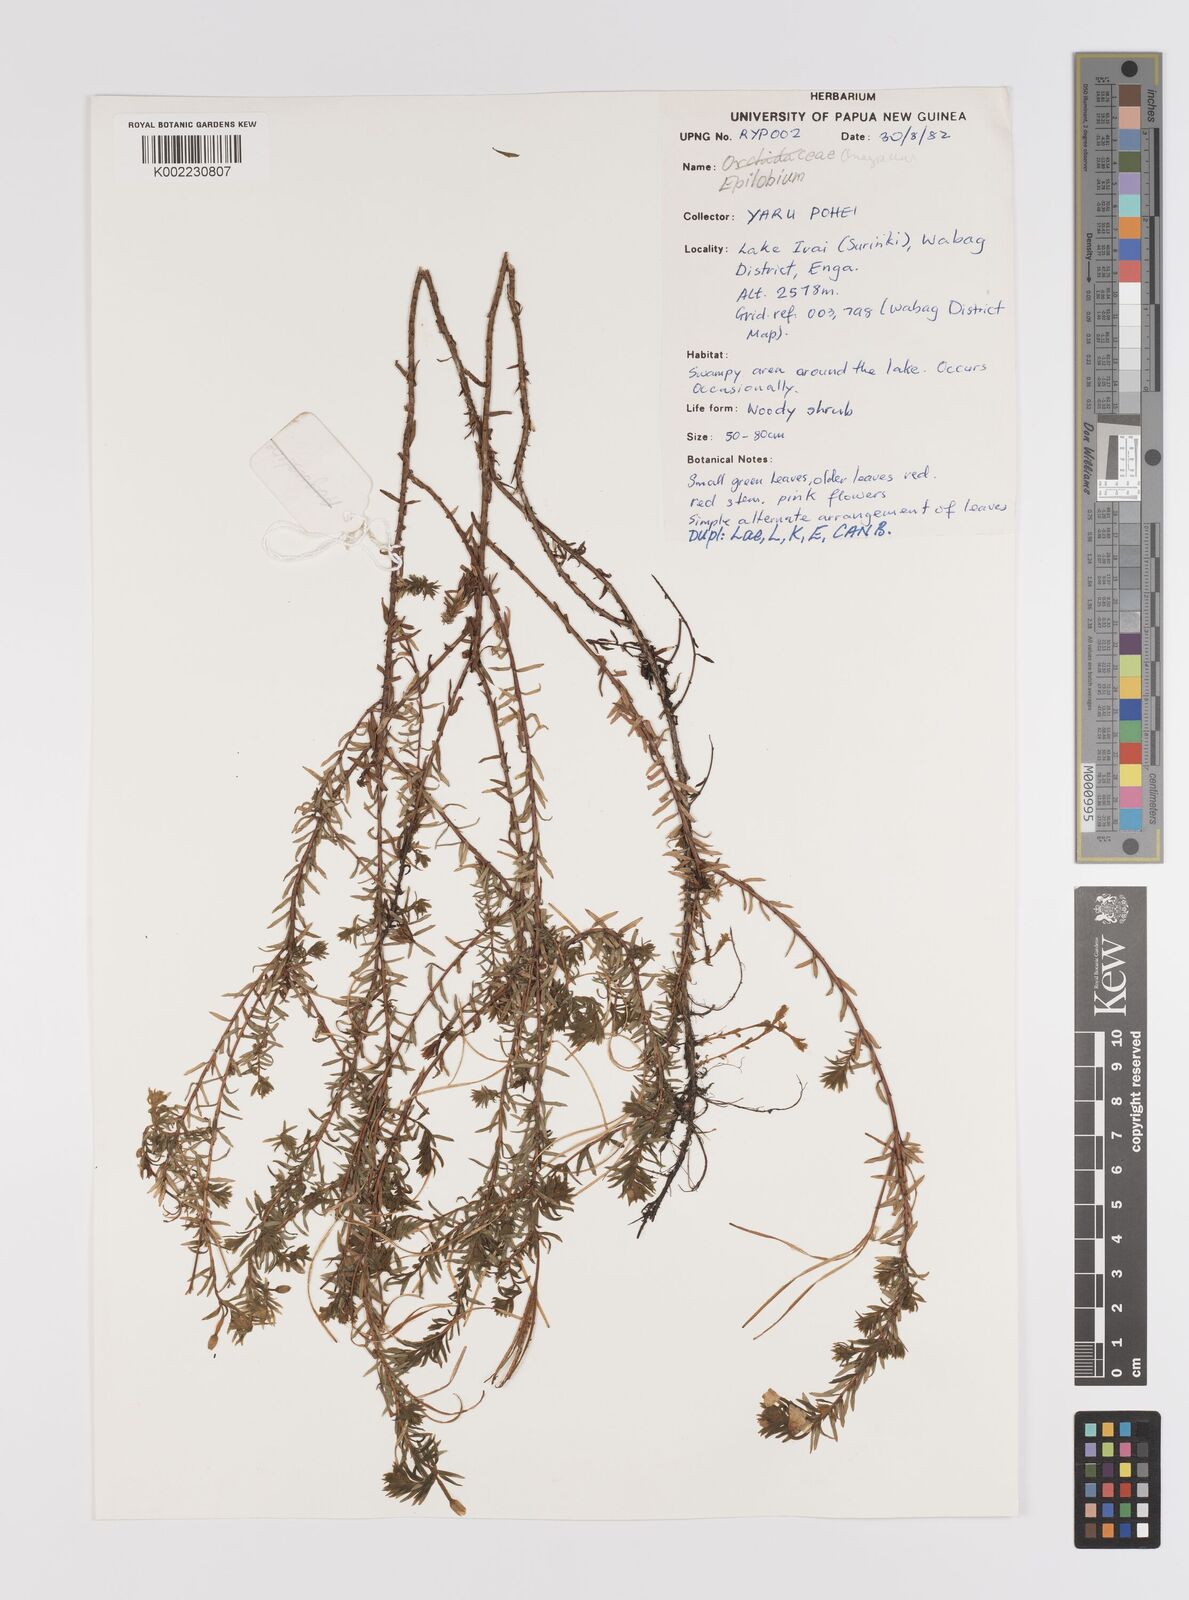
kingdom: Plantae
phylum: Tracheophyta
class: Magnoliopsida
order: Myrtales
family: Onagraceae
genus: Epilobium
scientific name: Epilobium
